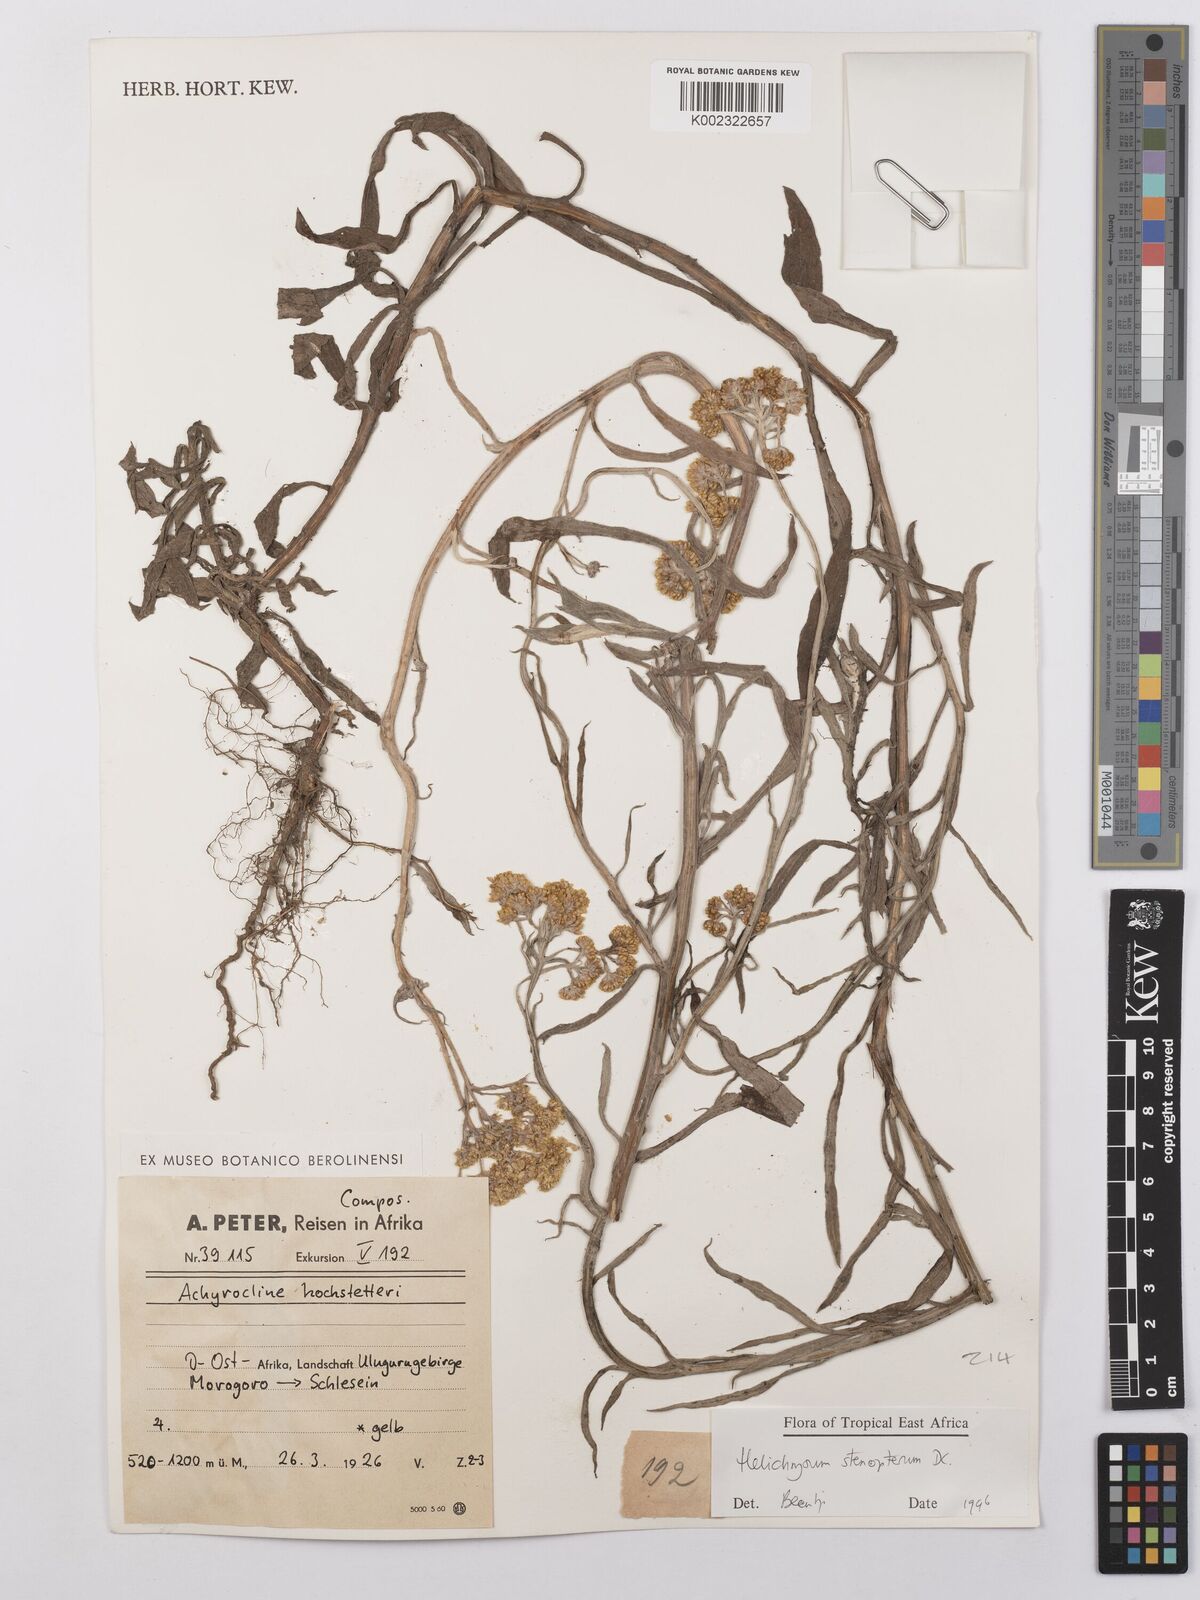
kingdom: Plantae
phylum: Tracheophyta
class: Magnoliopsida
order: Asterales
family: Asteraceae
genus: Helichrysum
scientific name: Helichrysum stenopterum
